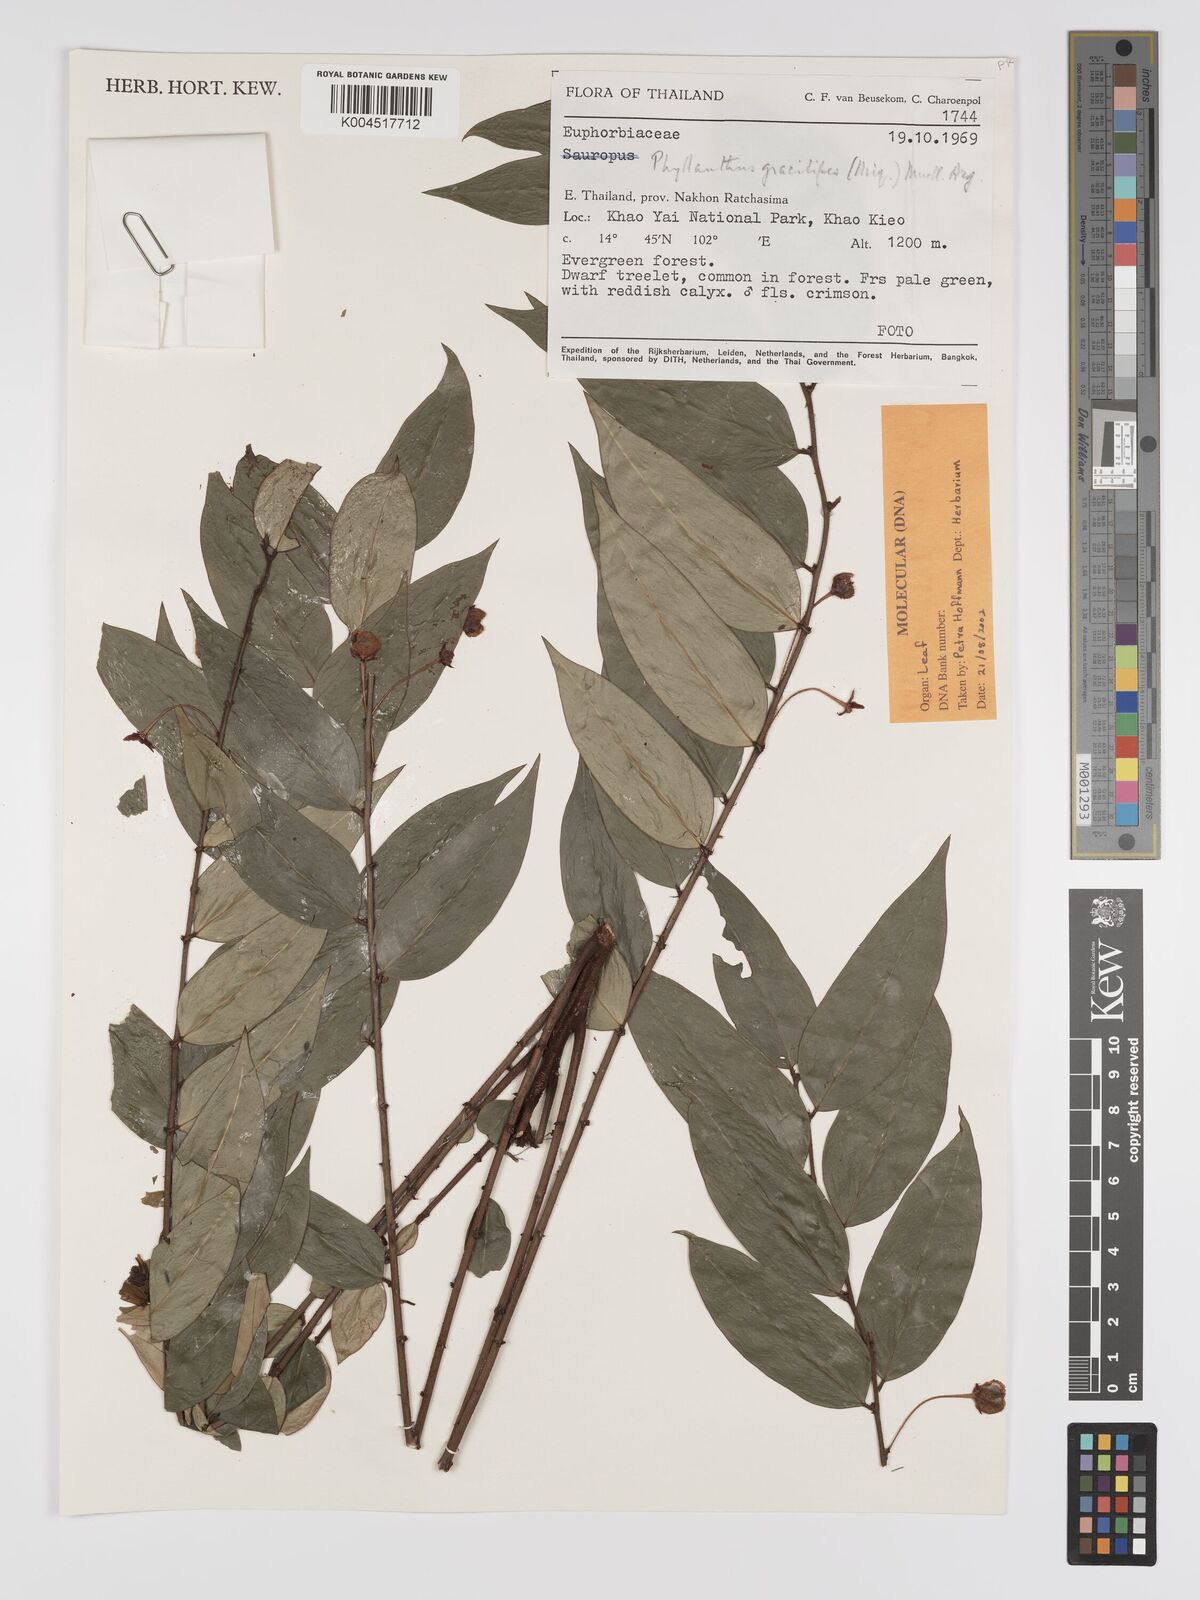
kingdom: Plantae
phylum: Tracheophyta
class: Magnoliopsida
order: Malpighiales
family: Phyllanthaceae
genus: Phyllanthus
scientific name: Phyllanthus
